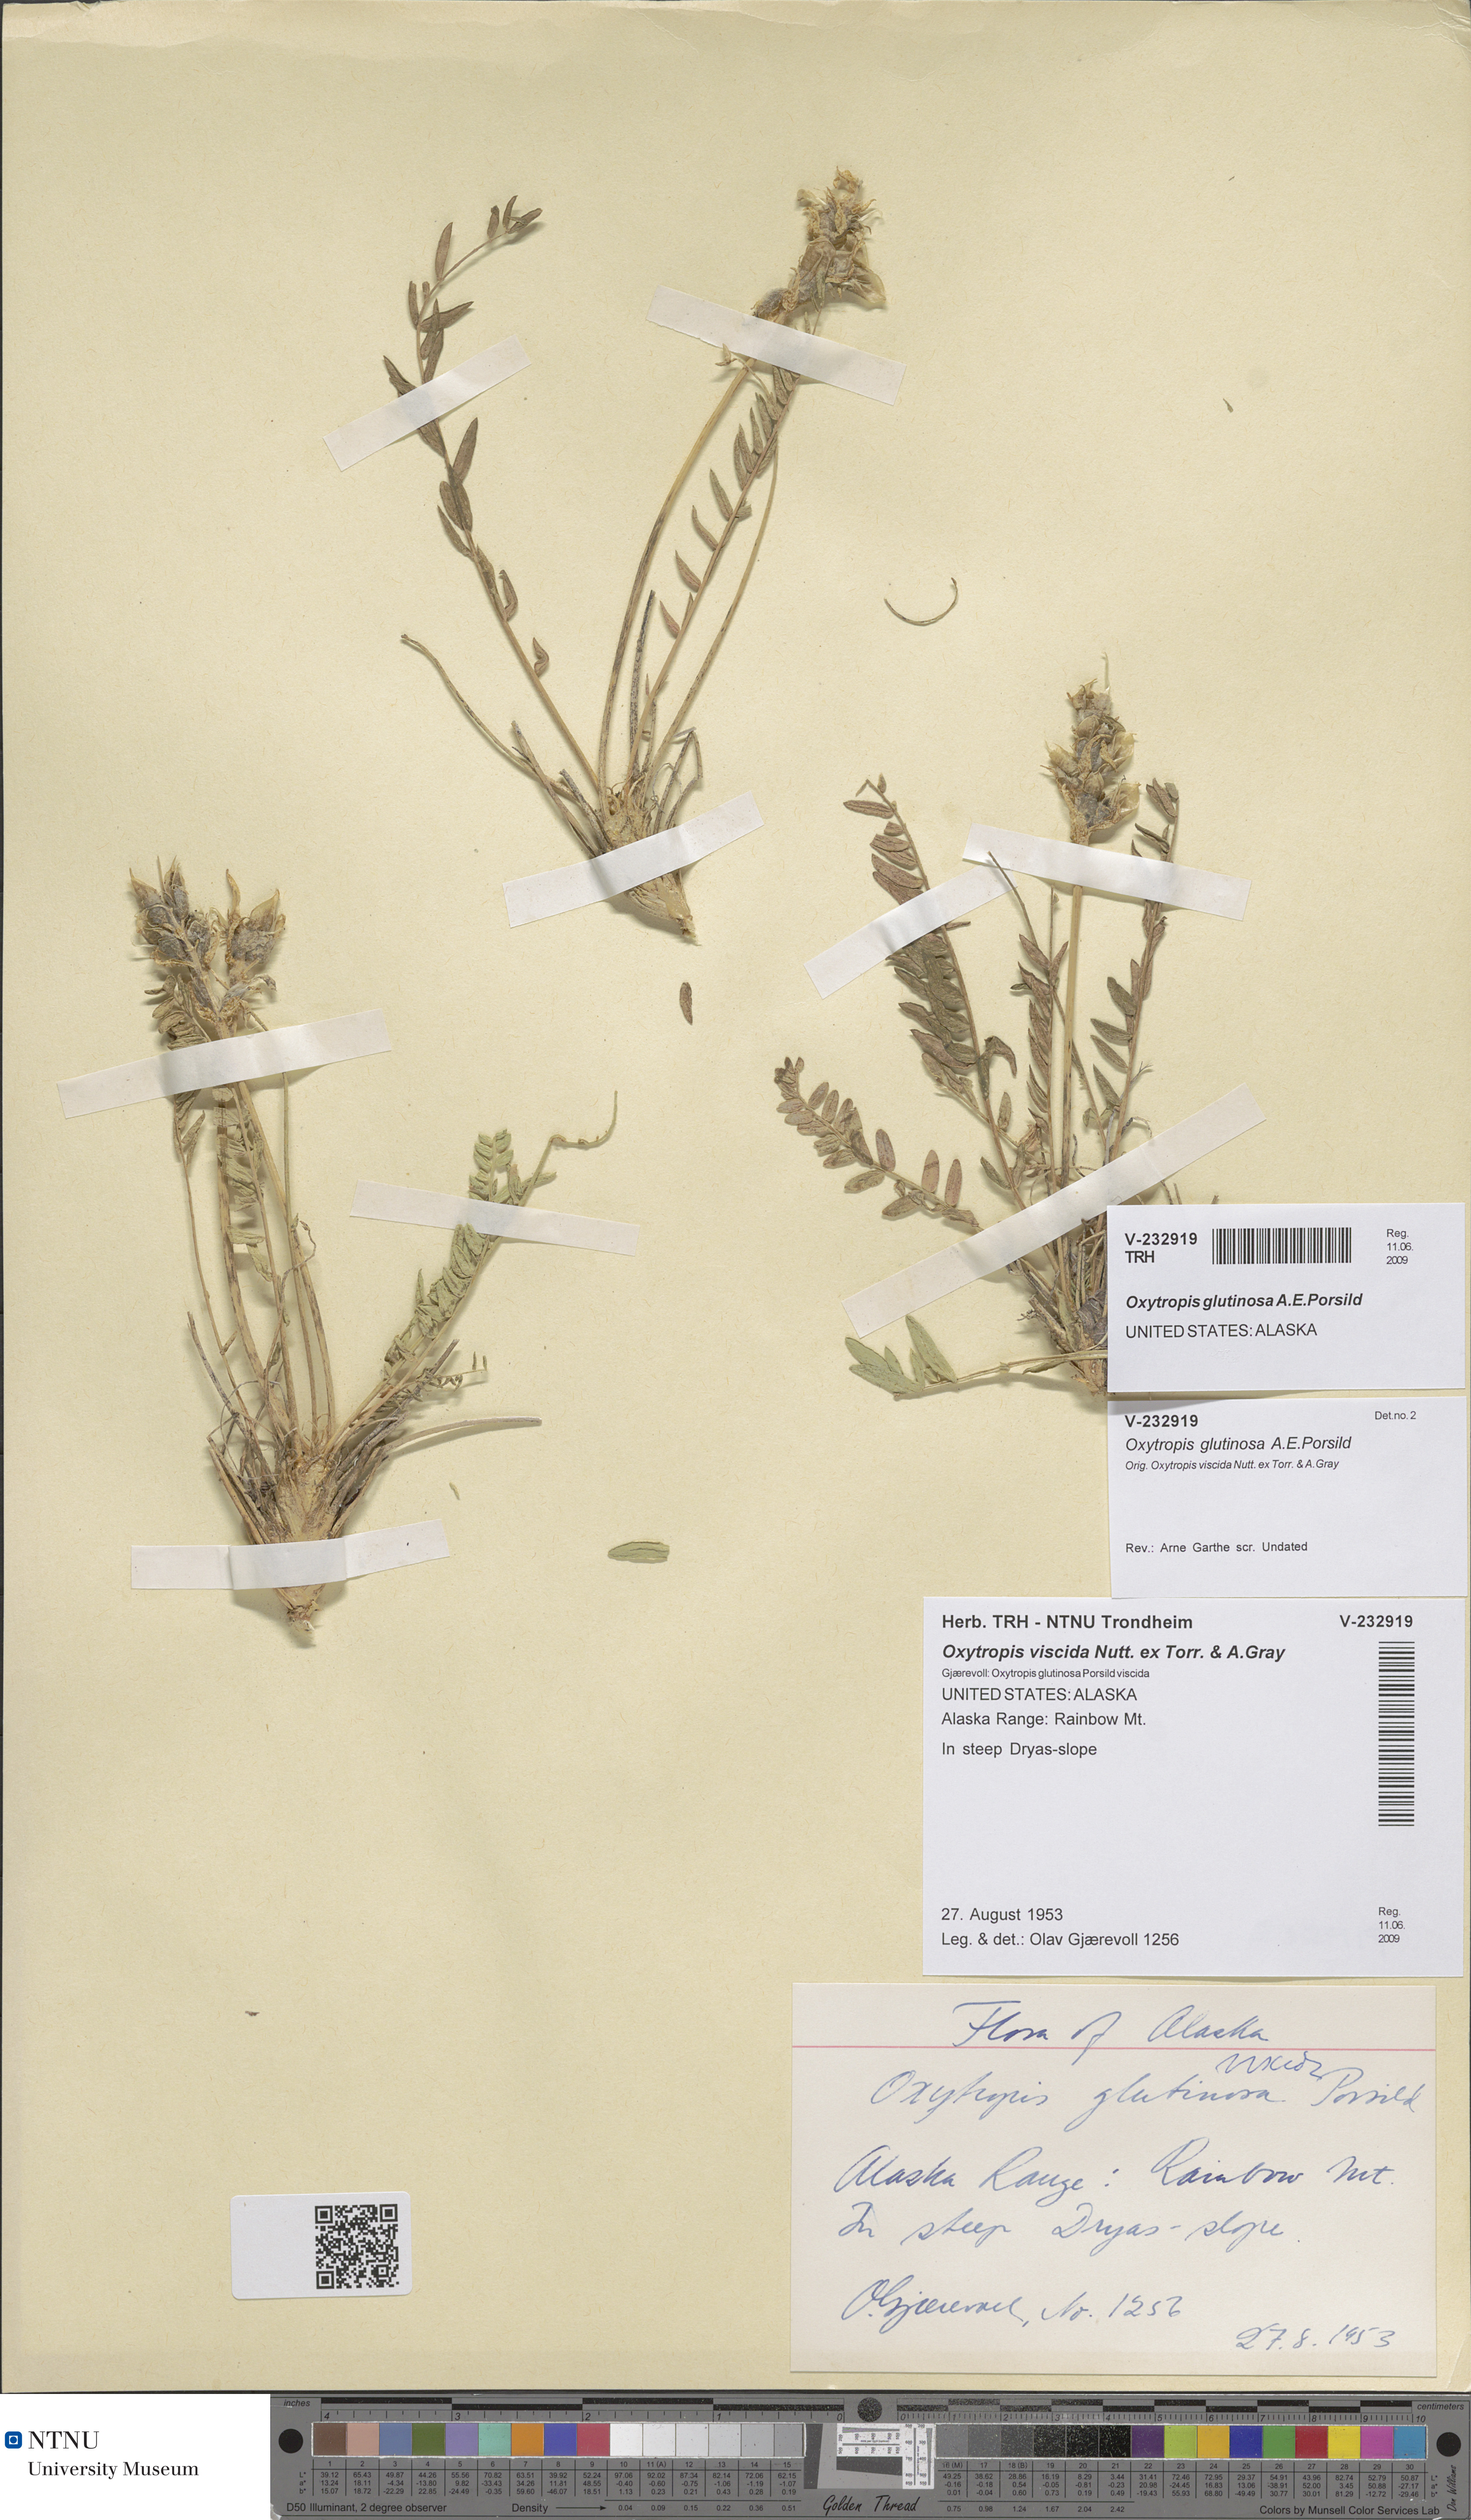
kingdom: Plantae
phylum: Tracheophyta
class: Magnoliopsida
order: Fabales
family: Fabaceae
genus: Oxytropis
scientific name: Oxytropis borealis
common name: Boreal locoweed
